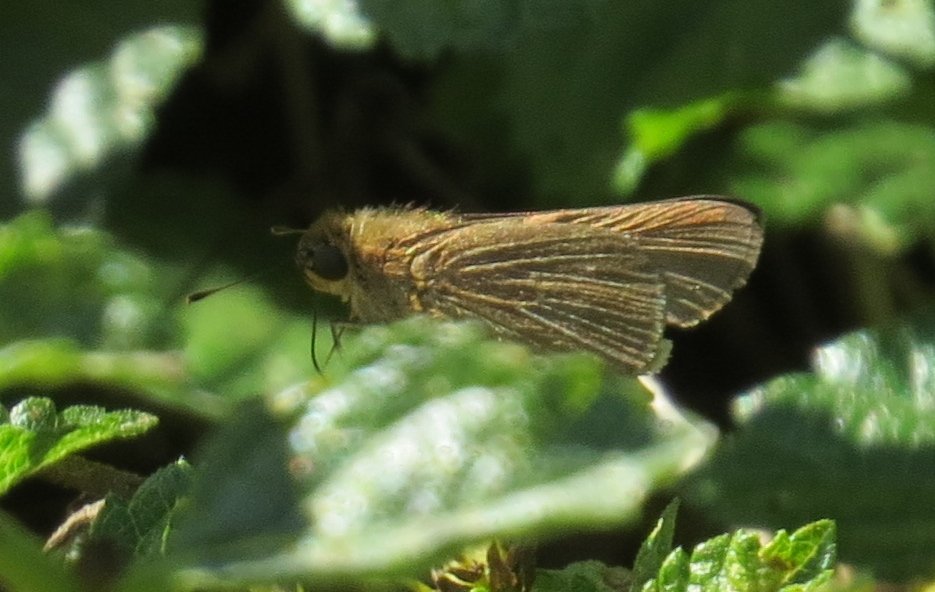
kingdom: Animalia
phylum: Arthropoda
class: Insecta
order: Lepidoptera
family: Hesperiidae
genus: Panoquina
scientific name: Panoquina ocola
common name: Ocola Skipper
